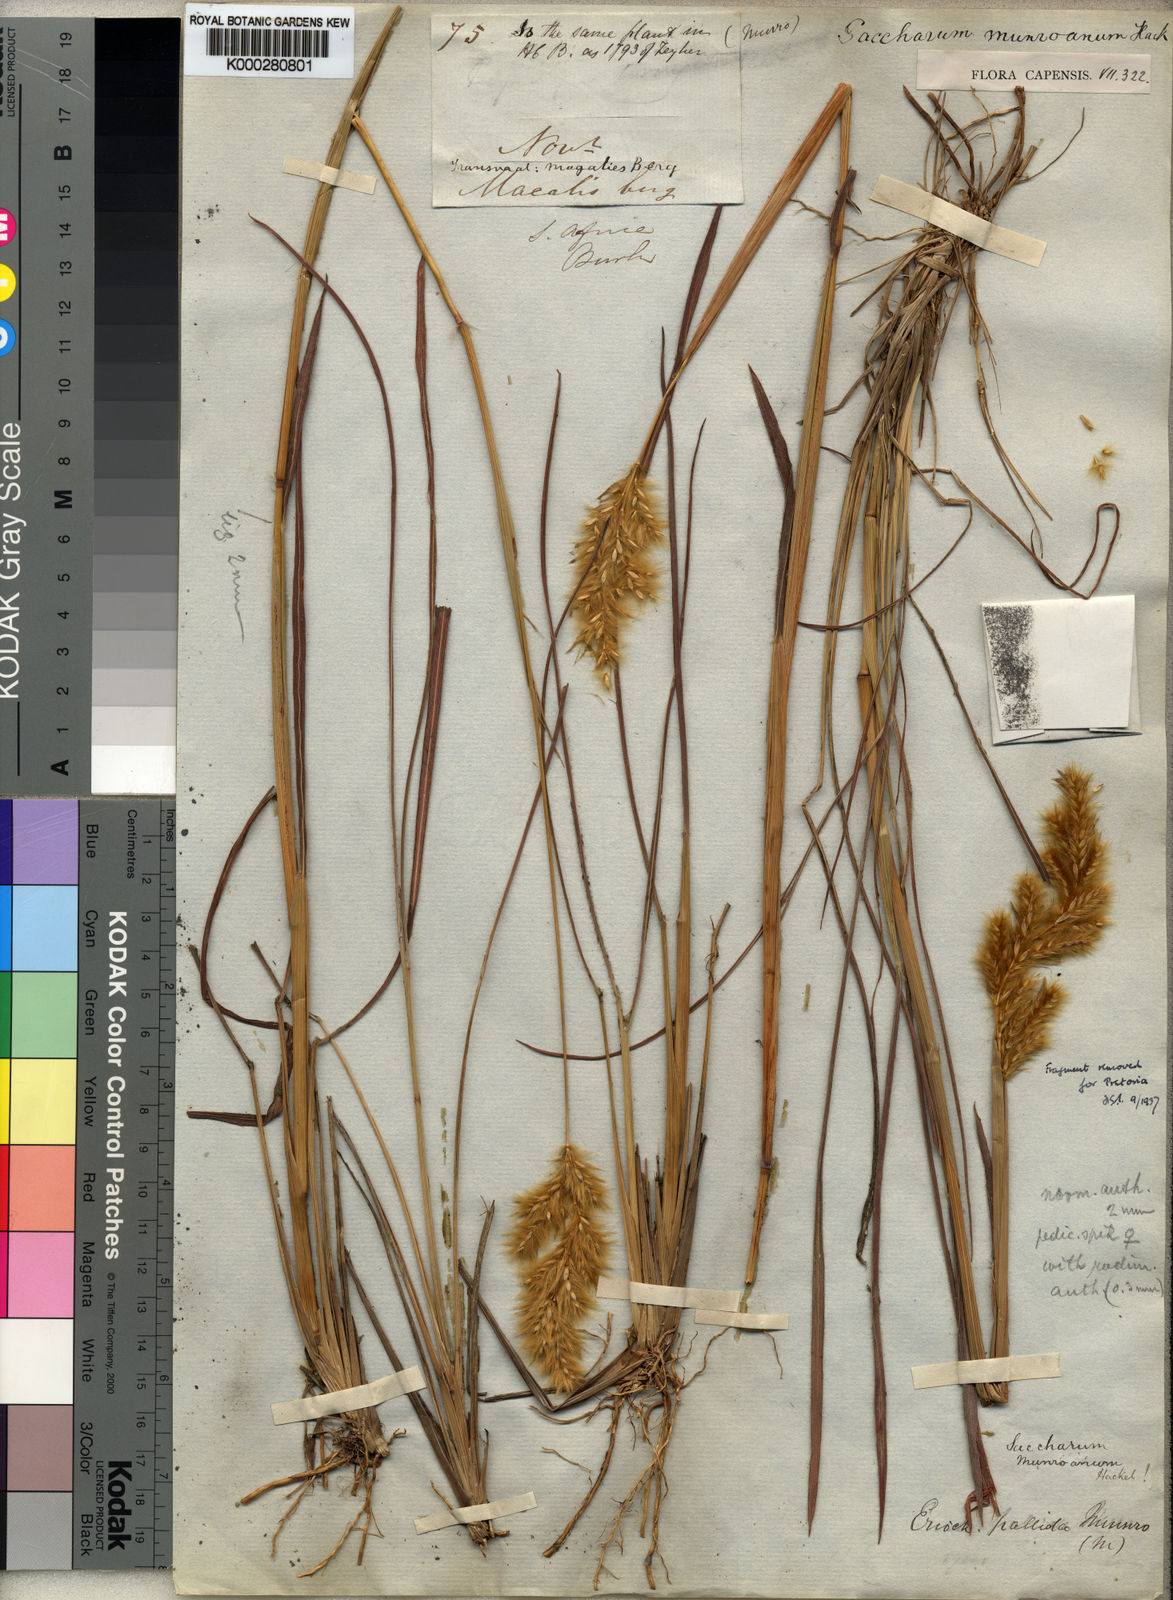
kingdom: Plantae
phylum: Tracheophyta
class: Liliopsida
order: Poales
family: Poaceae
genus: Eriochrysis
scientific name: Eriochrysis pallida
